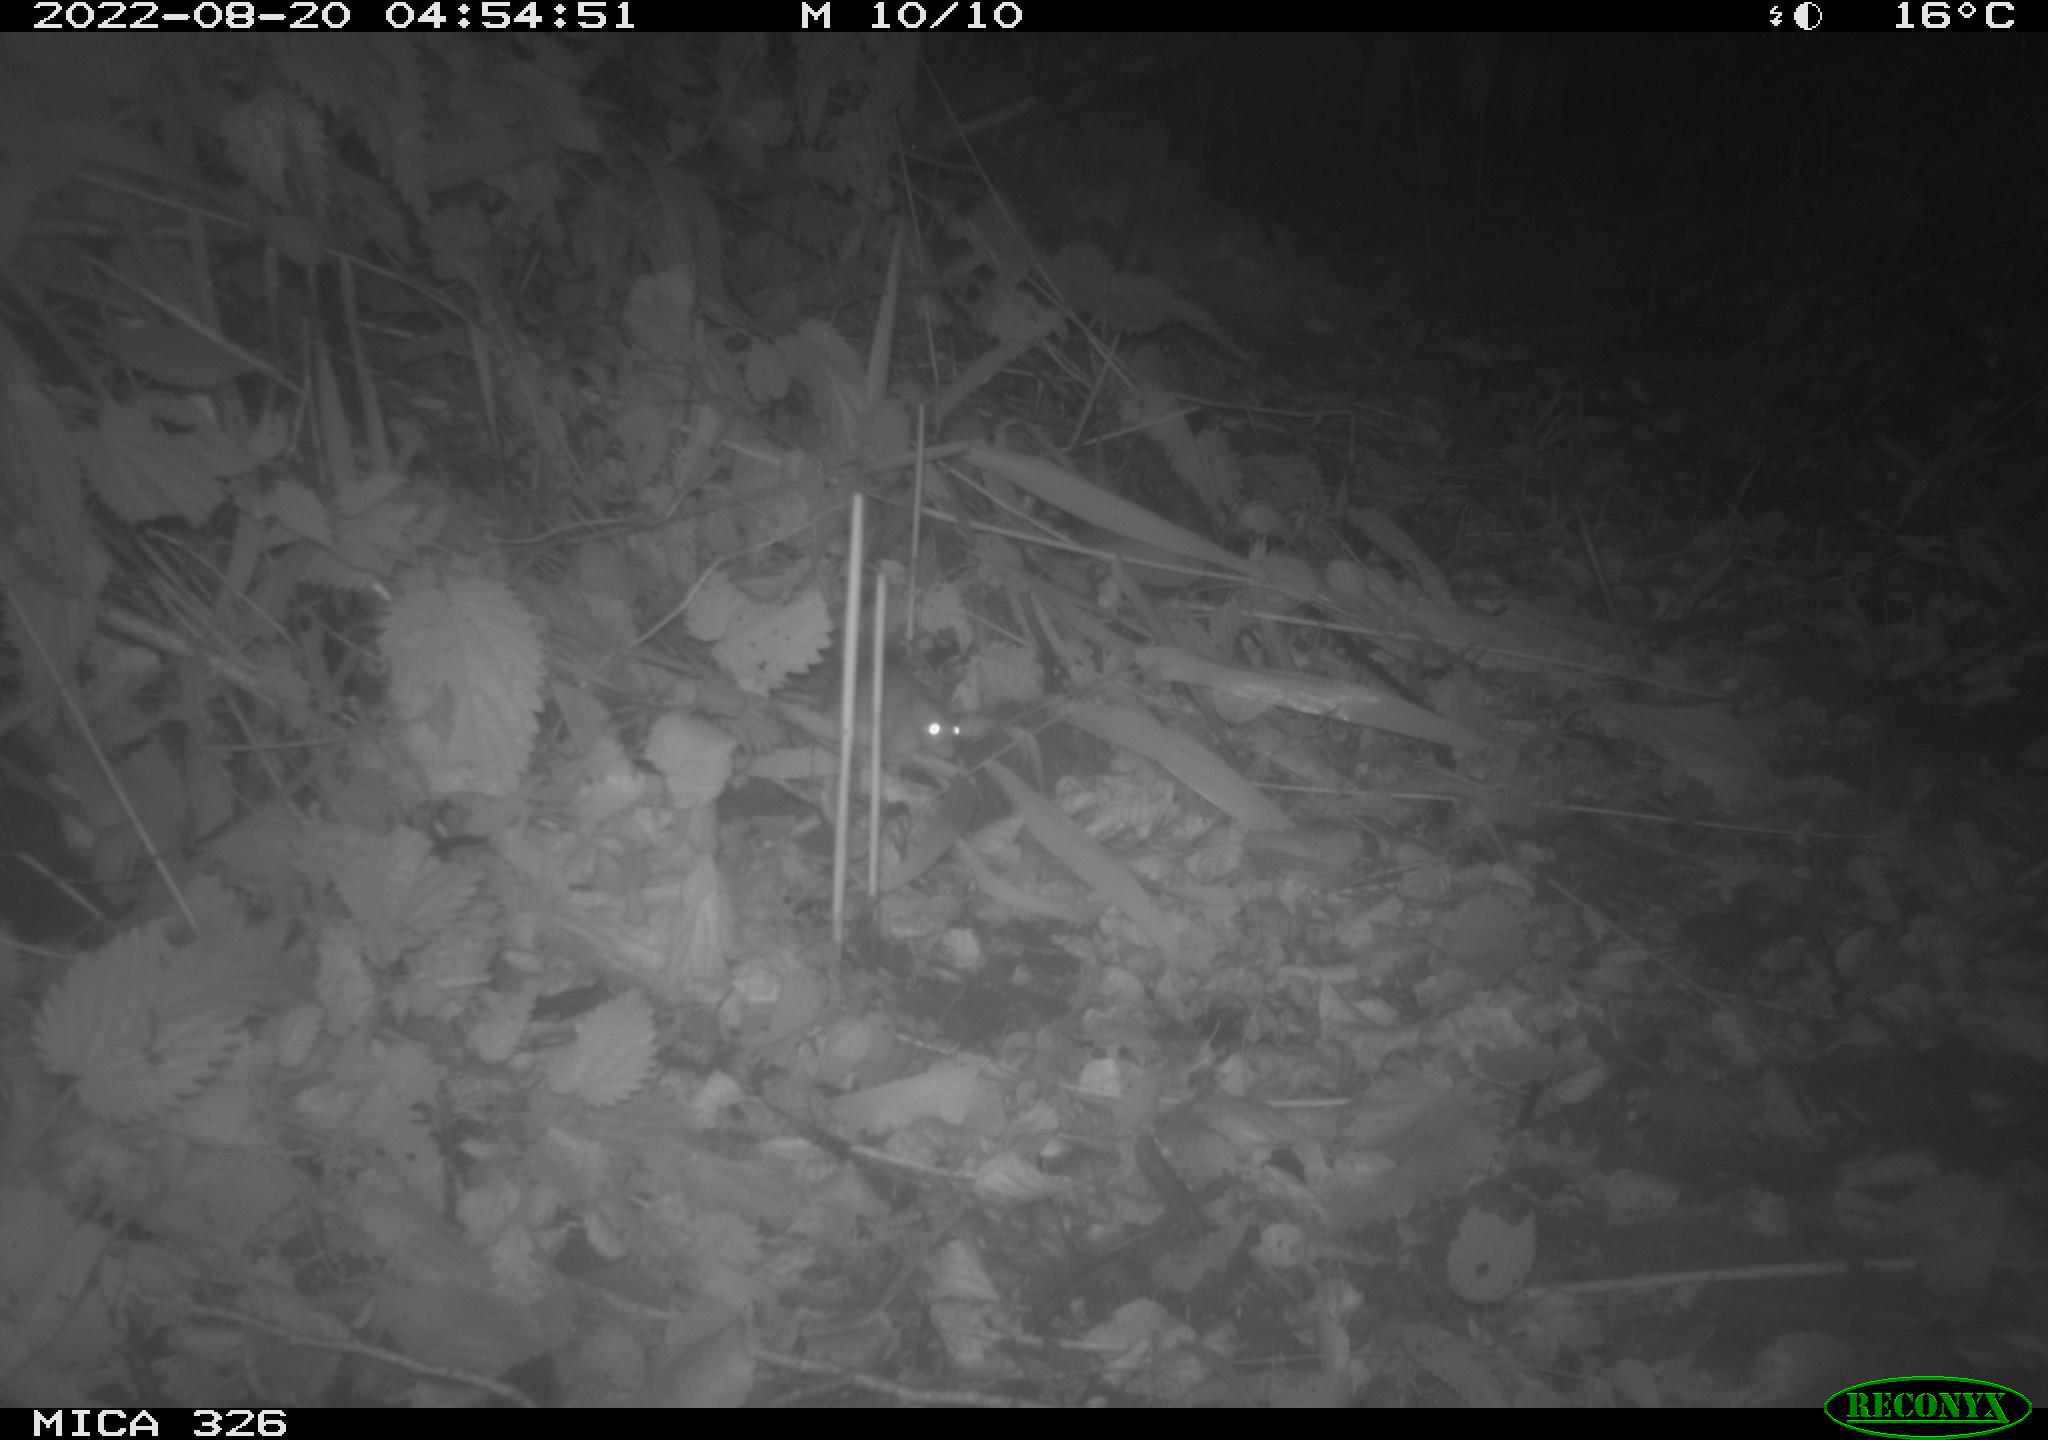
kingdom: Animalia
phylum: Chordata
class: Mammalia
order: Rodentia
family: Muridae
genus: Rattus
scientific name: Rattus norvegicus
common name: Brown rat
